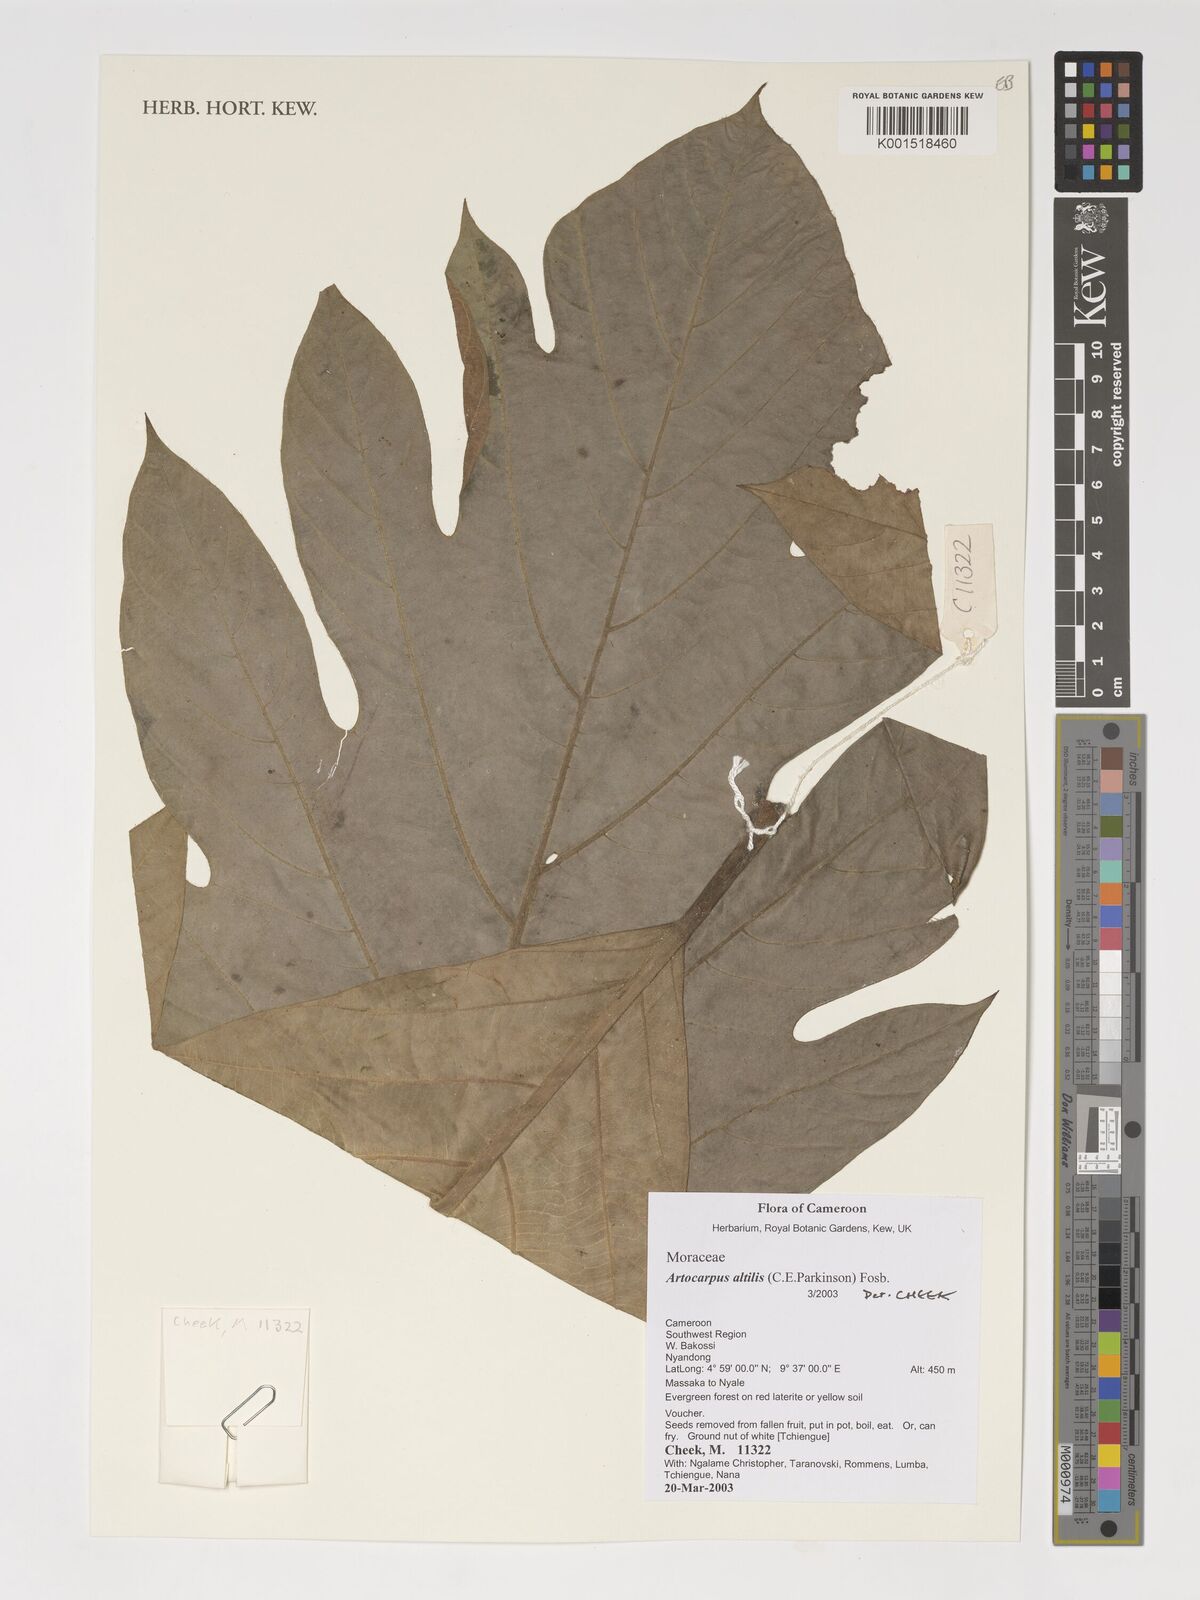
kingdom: Plantae
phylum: Tracheophyta
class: Magnoliopsida
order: Rosales
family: Moraceae
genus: Artocarpus
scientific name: Artocarpus altilis
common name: Breadfruit
